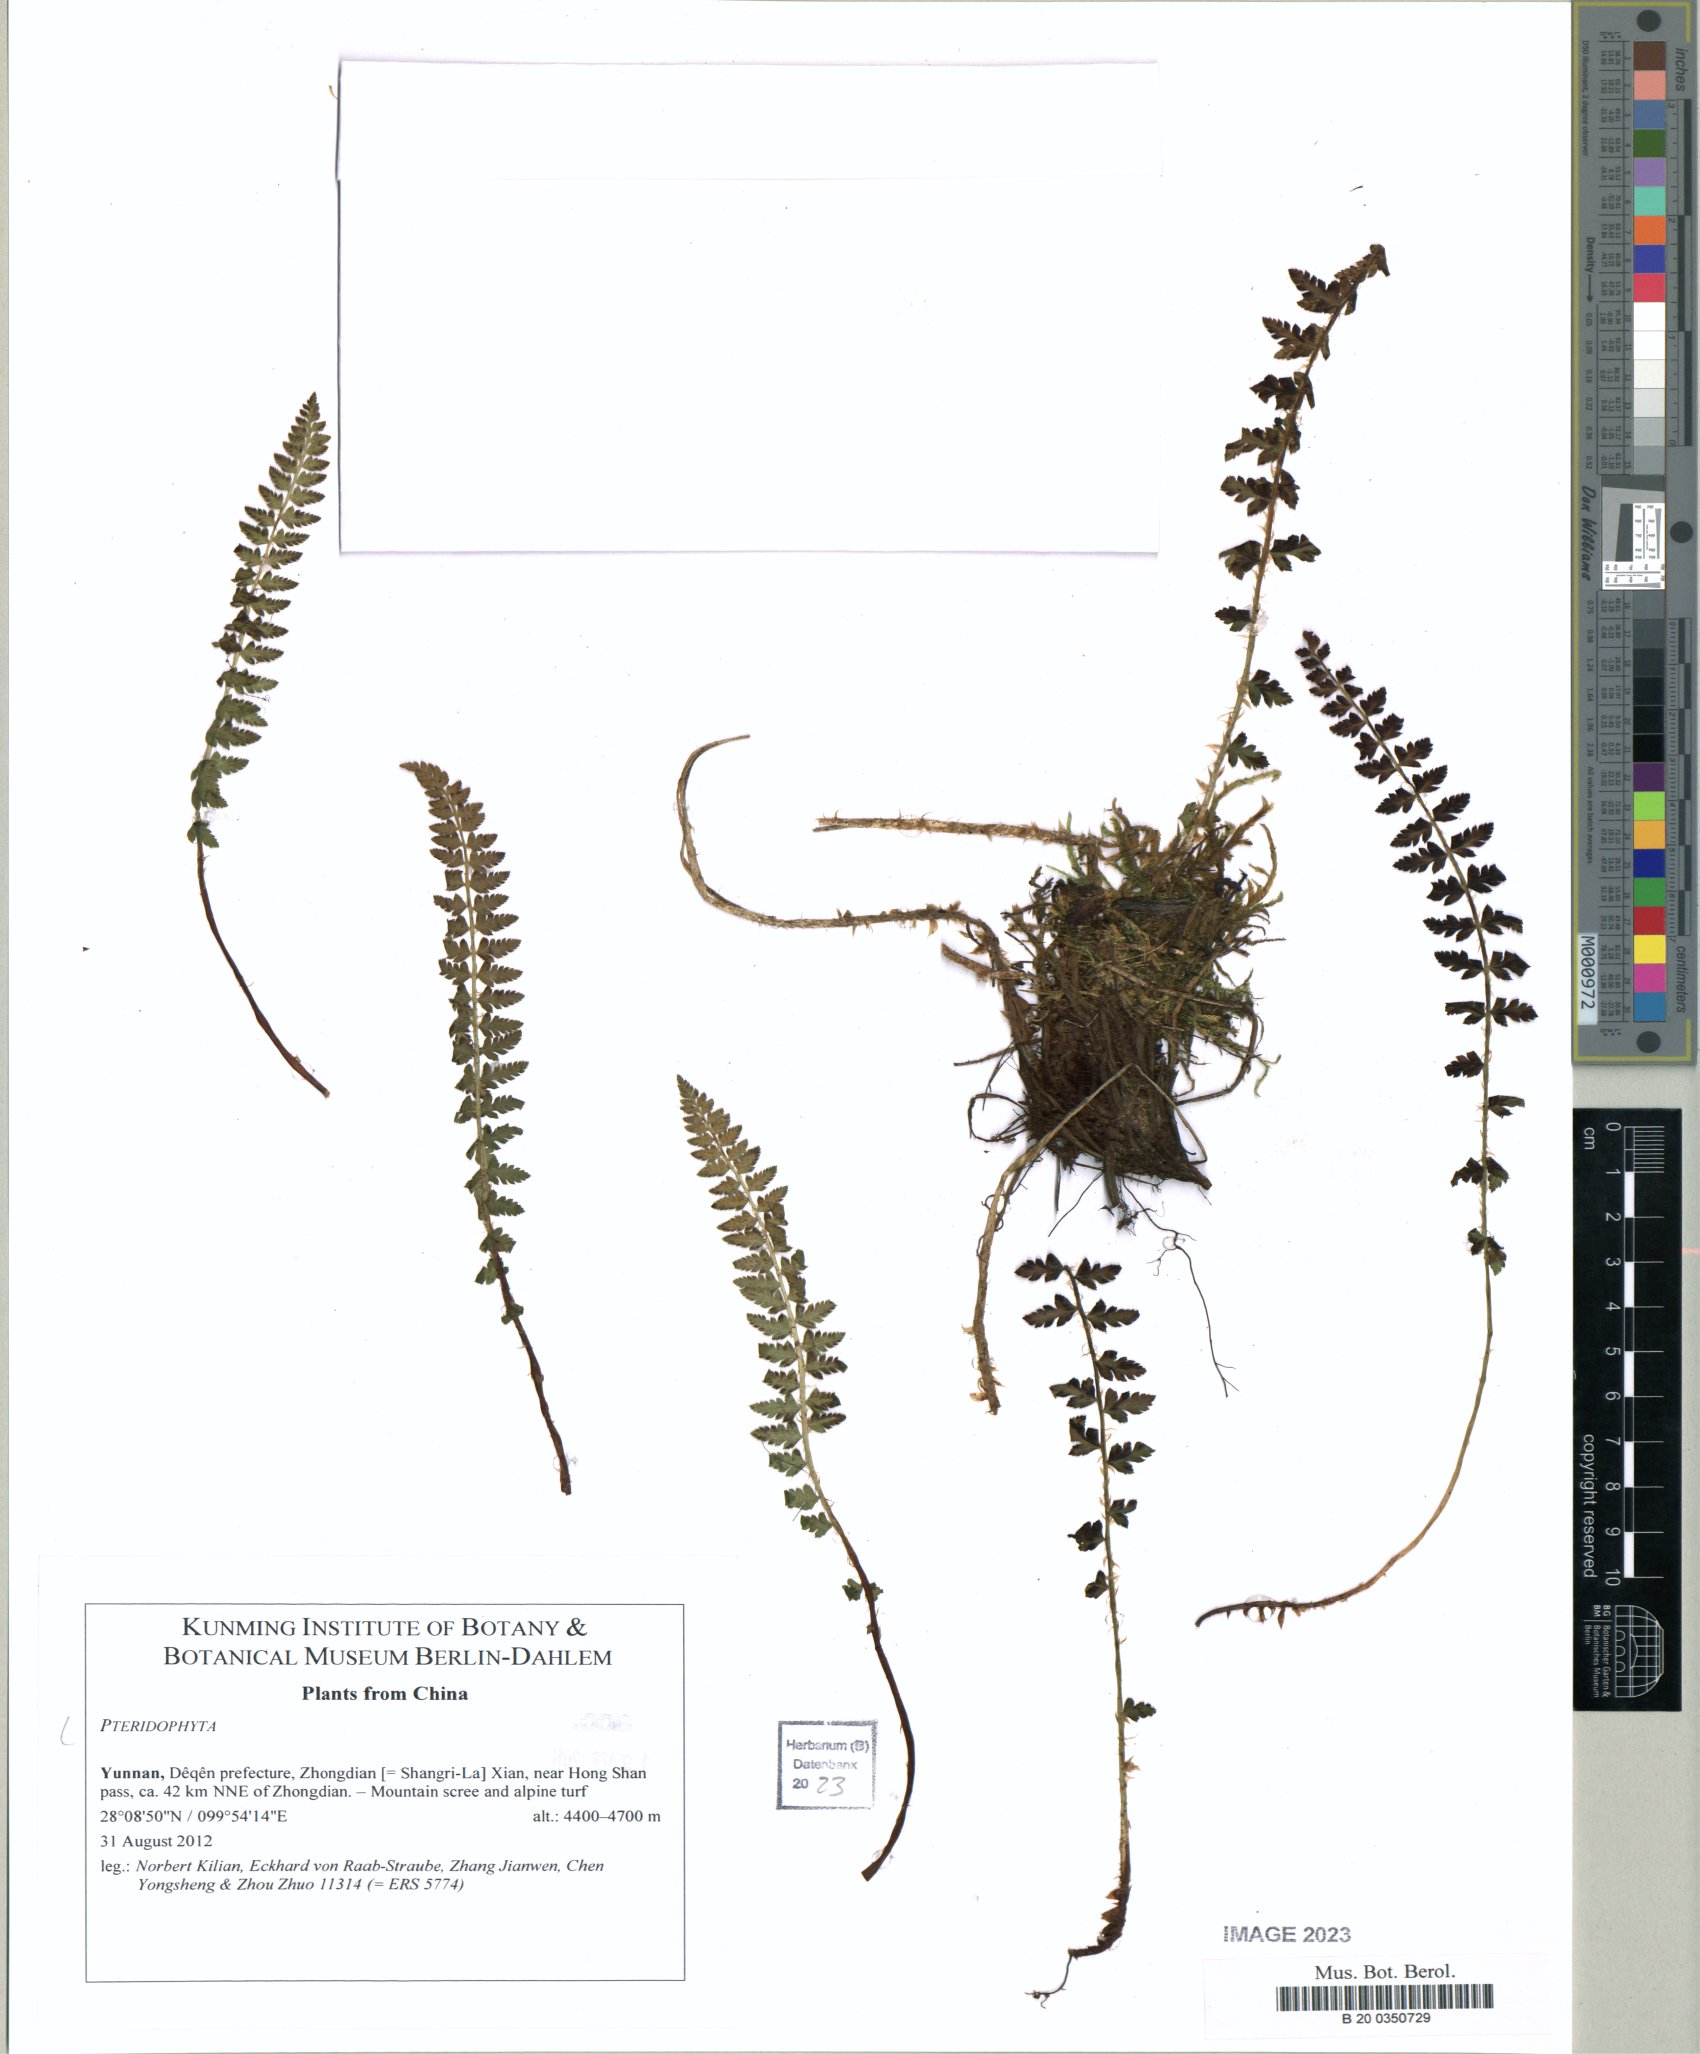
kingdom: Plantae
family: Pteridophyta
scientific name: Pteridophyta
